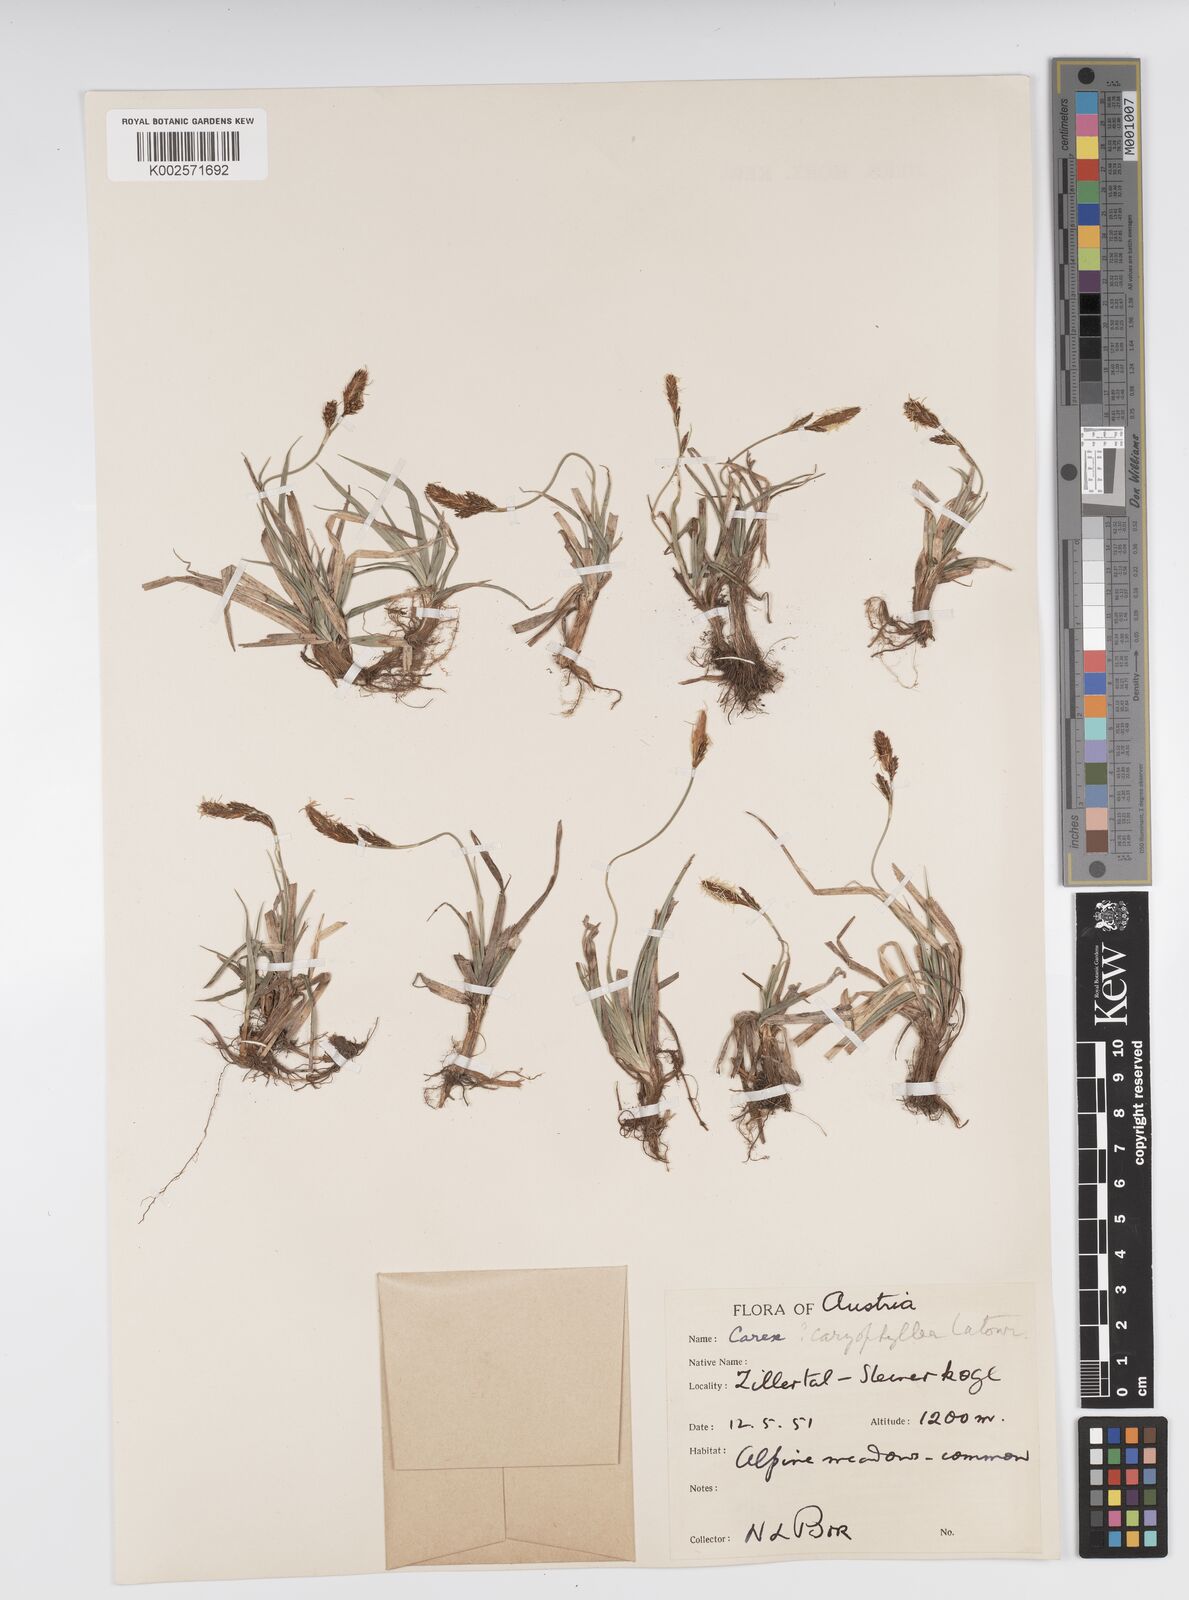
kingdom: Plantae
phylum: Tracheophyta
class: Liliopsida
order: Poales
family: Cyperaceae
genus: Carex
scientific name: Carex caryophyllea
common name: Spring sedge
